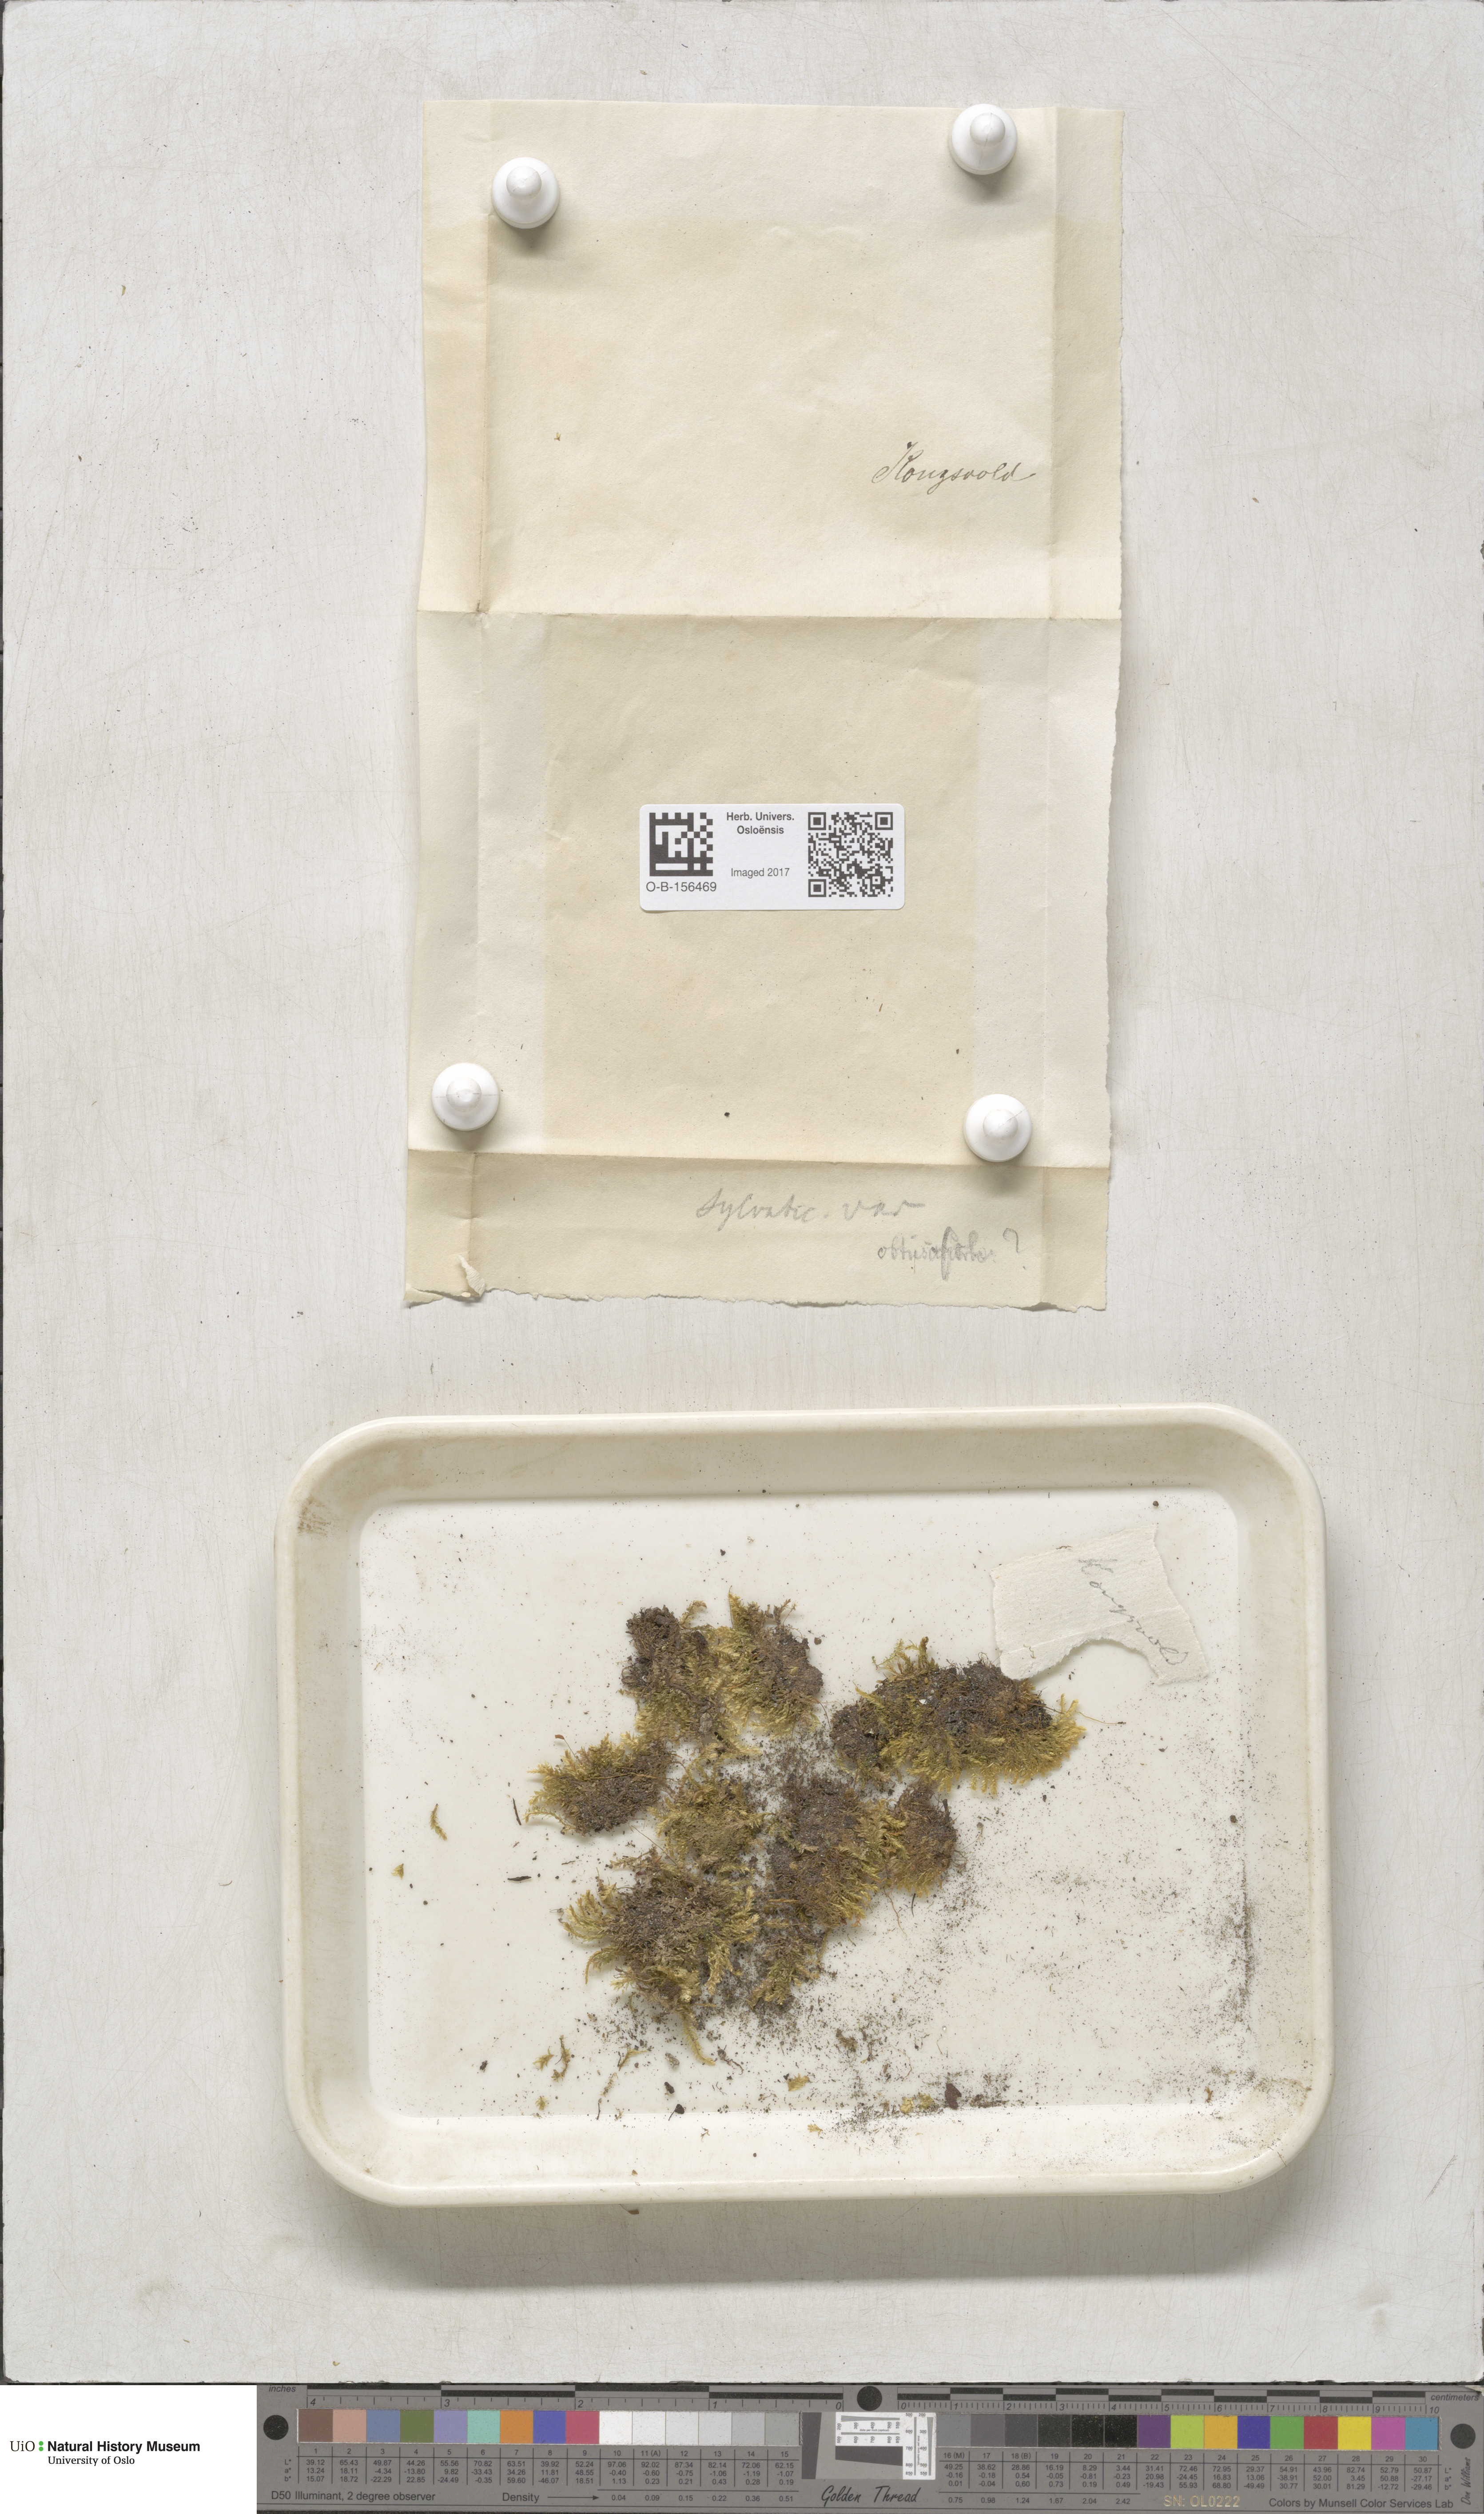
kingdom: Plantae
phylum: Bryophyta
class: Bryopsida
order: Hypnales
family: Plagiotheciaceae
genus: Plagiothecium
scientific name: Plagiothecium nemorale
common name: Woodsy silk-moss
